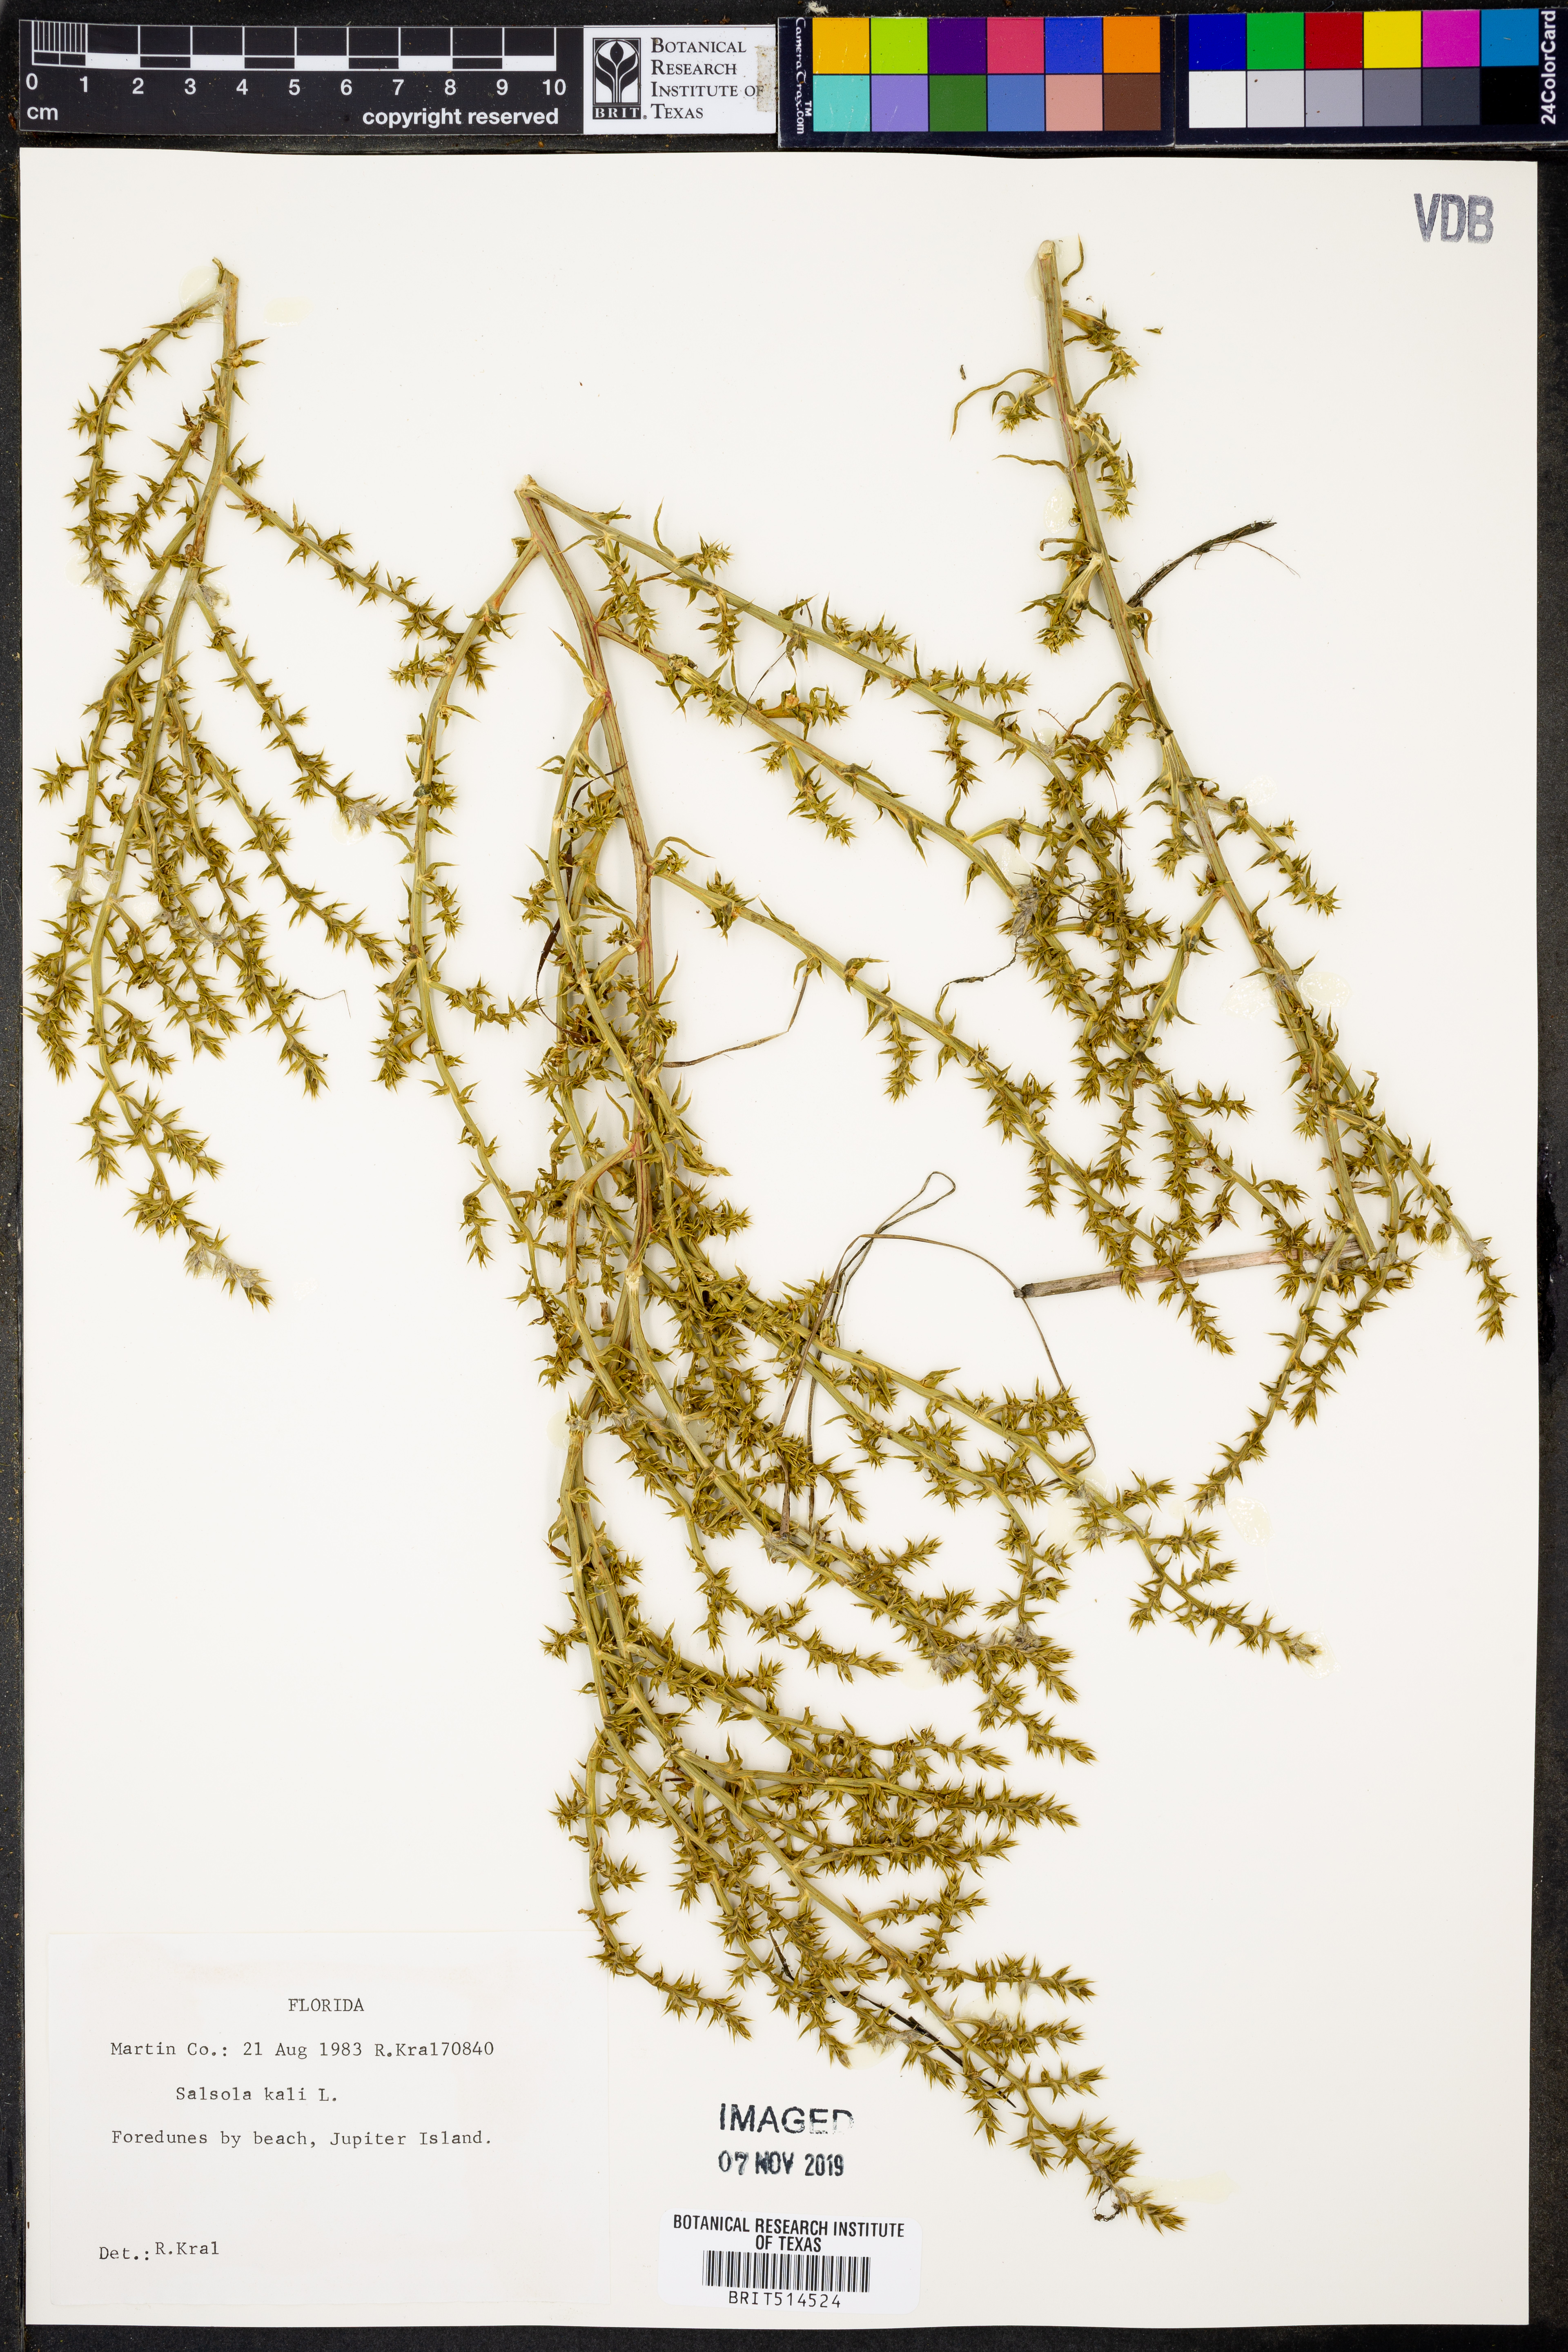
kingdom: Plantae
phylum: Tracheophyta
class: Magnoliopsida
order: Caryophyllales
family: Amaranthaceae
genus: Salsola
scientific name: Salsola kali
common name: Saltwort
